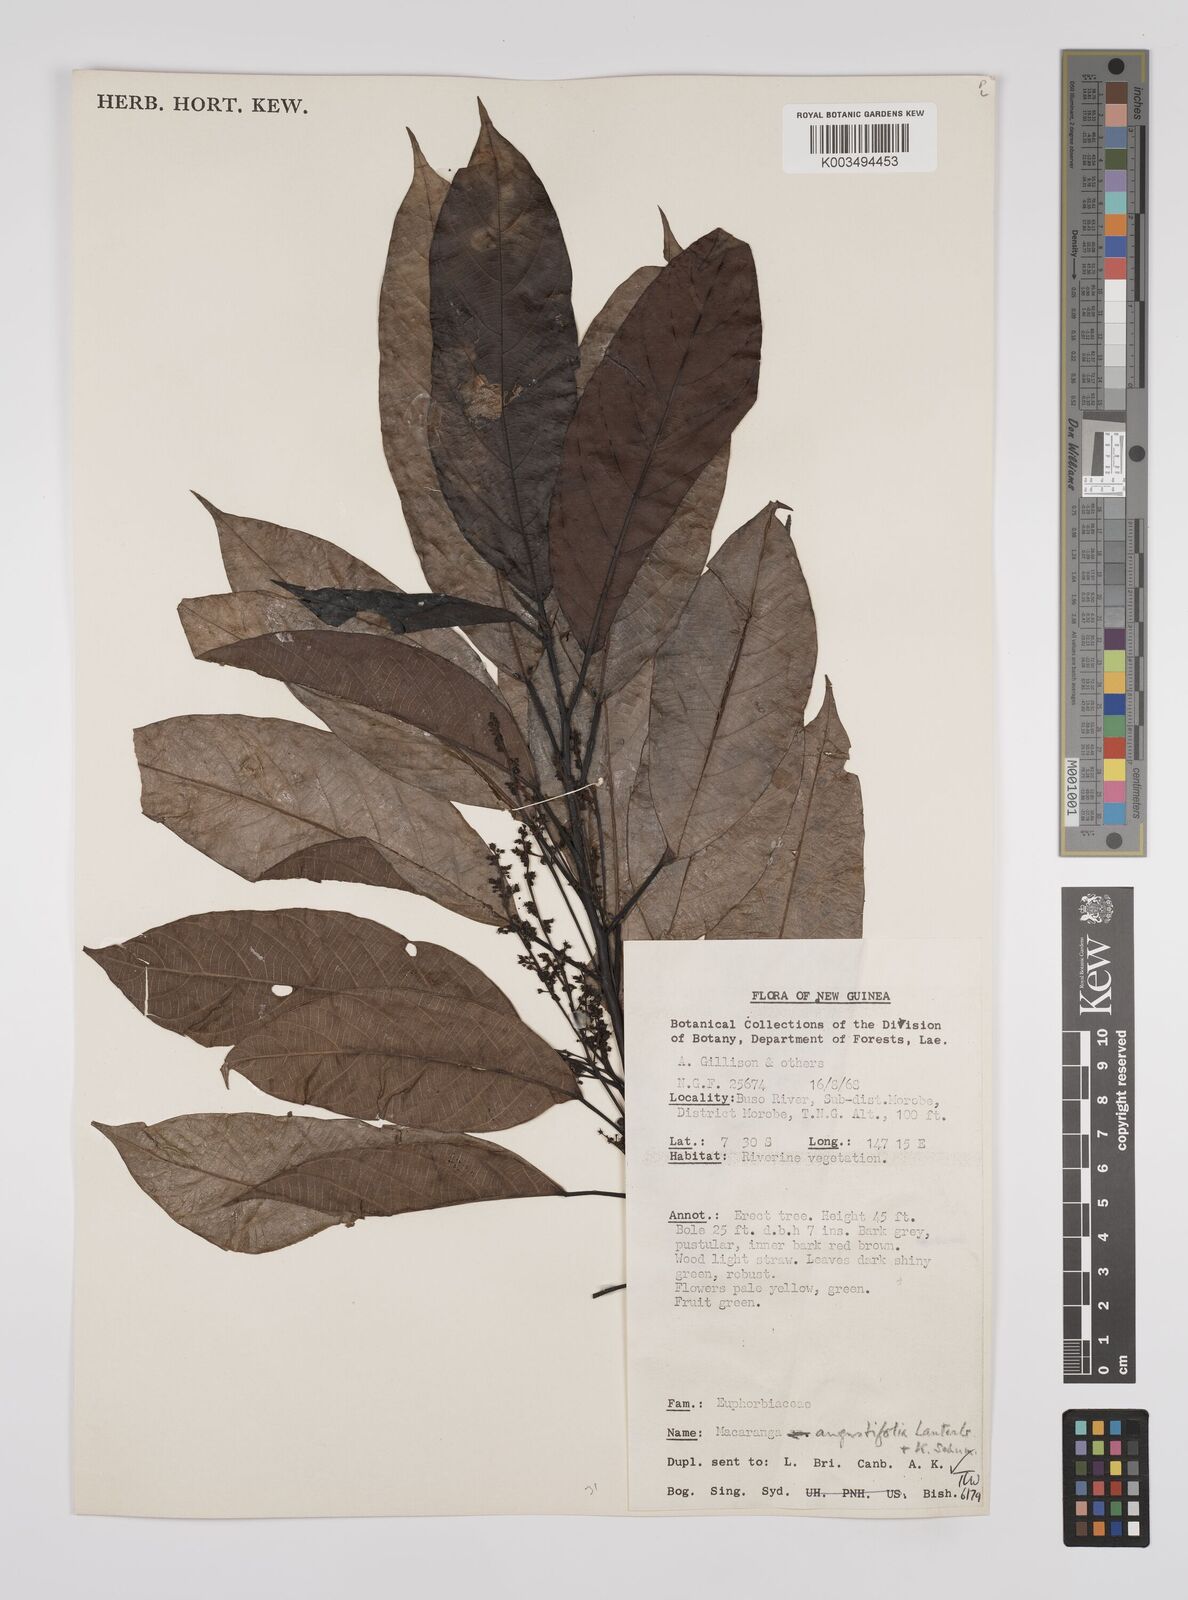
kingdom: Plantae
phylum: Tracheophyta
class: Magnoliopsida
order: Malpighiales
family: Euphorbiaceae
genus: Macaranga
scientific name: Macaranga angustifolia
